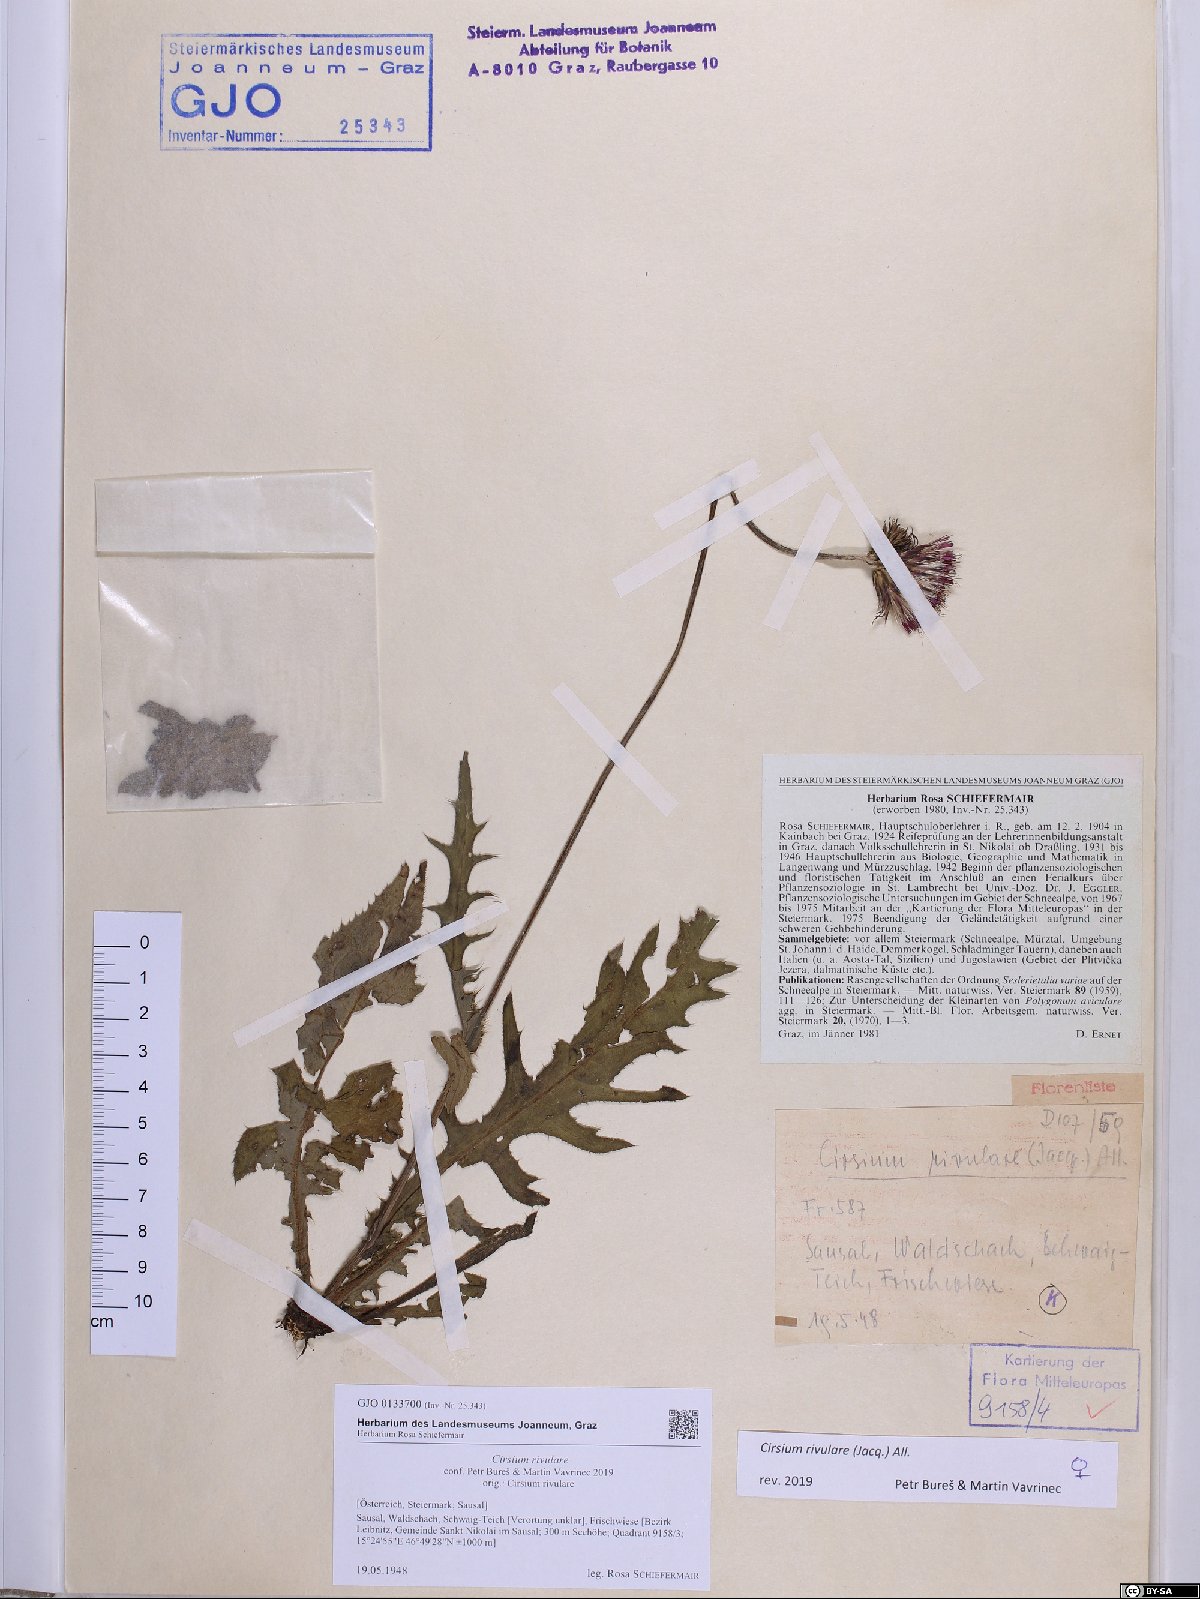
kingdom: Plantae
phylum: Tracheophyta
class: Magnoliopsida
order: Asterales
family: Asteraceae
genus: Cirsium
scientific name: Cirsium rivulare
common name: Brook thistle
